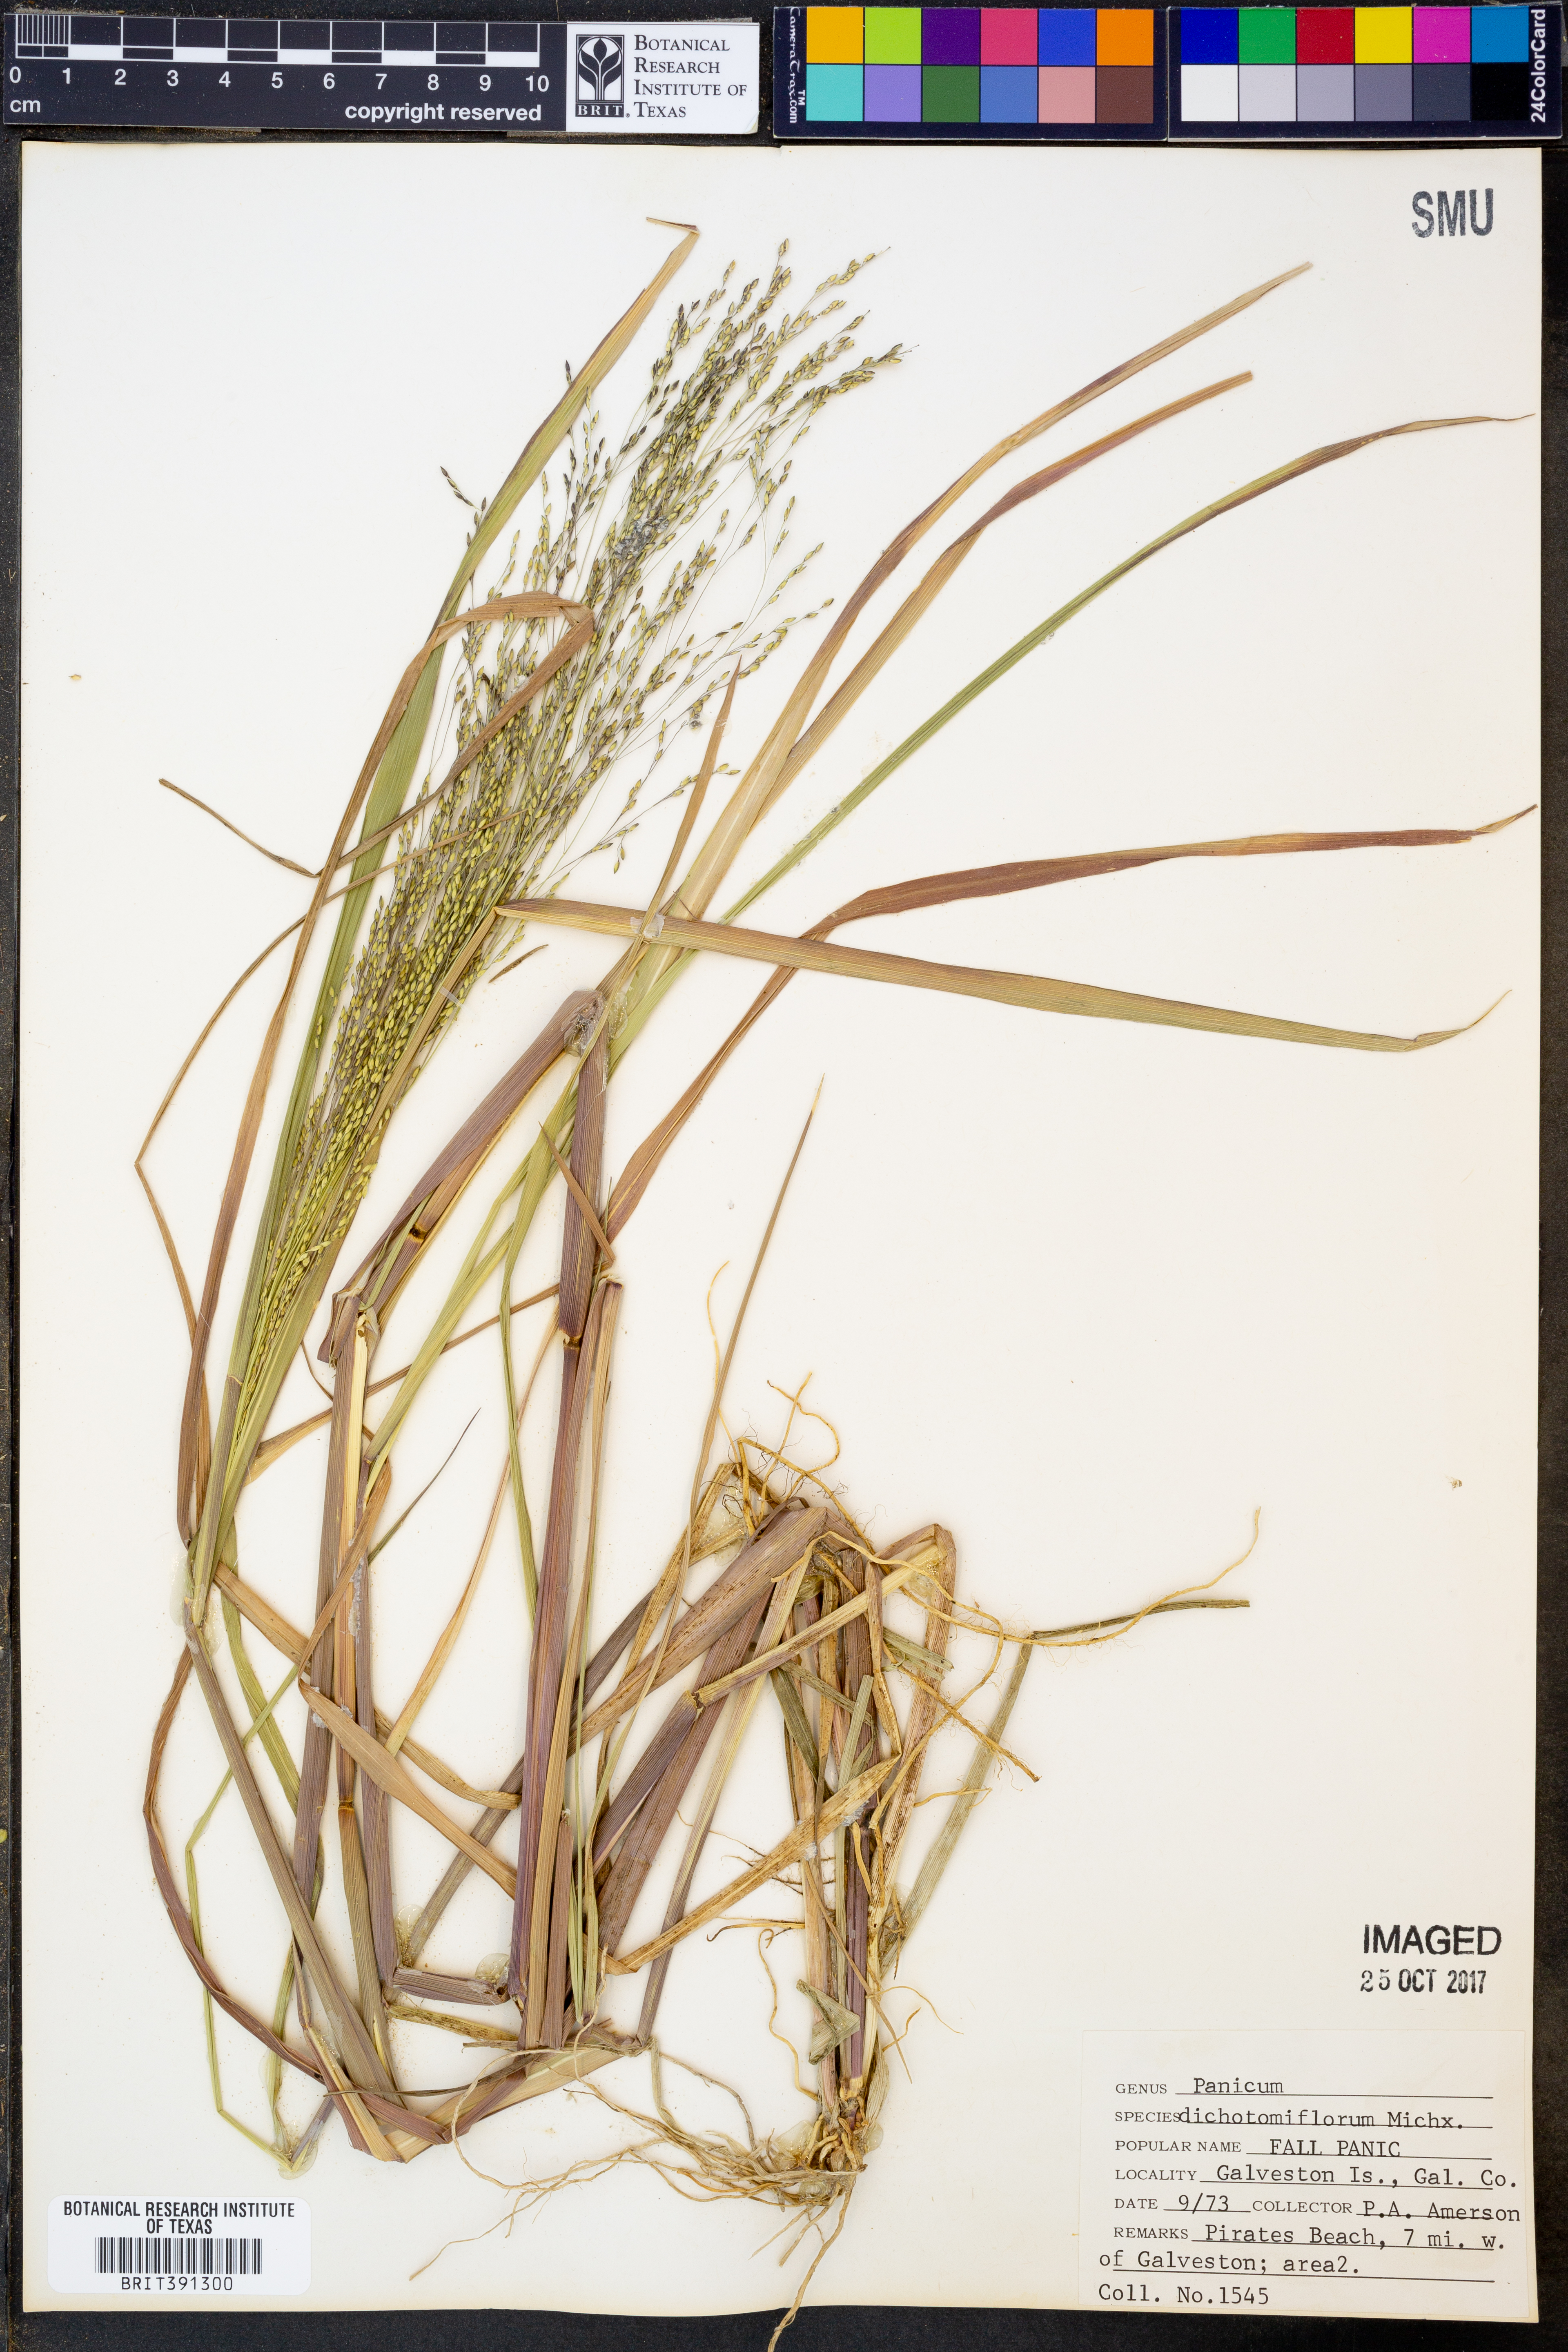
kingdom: Plantae
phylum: Tracheophyta
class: Liliopsida
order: Poales
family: Poaceae
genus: Panicum
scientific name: Panicum dichotomiflorum
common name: Autumn millet
